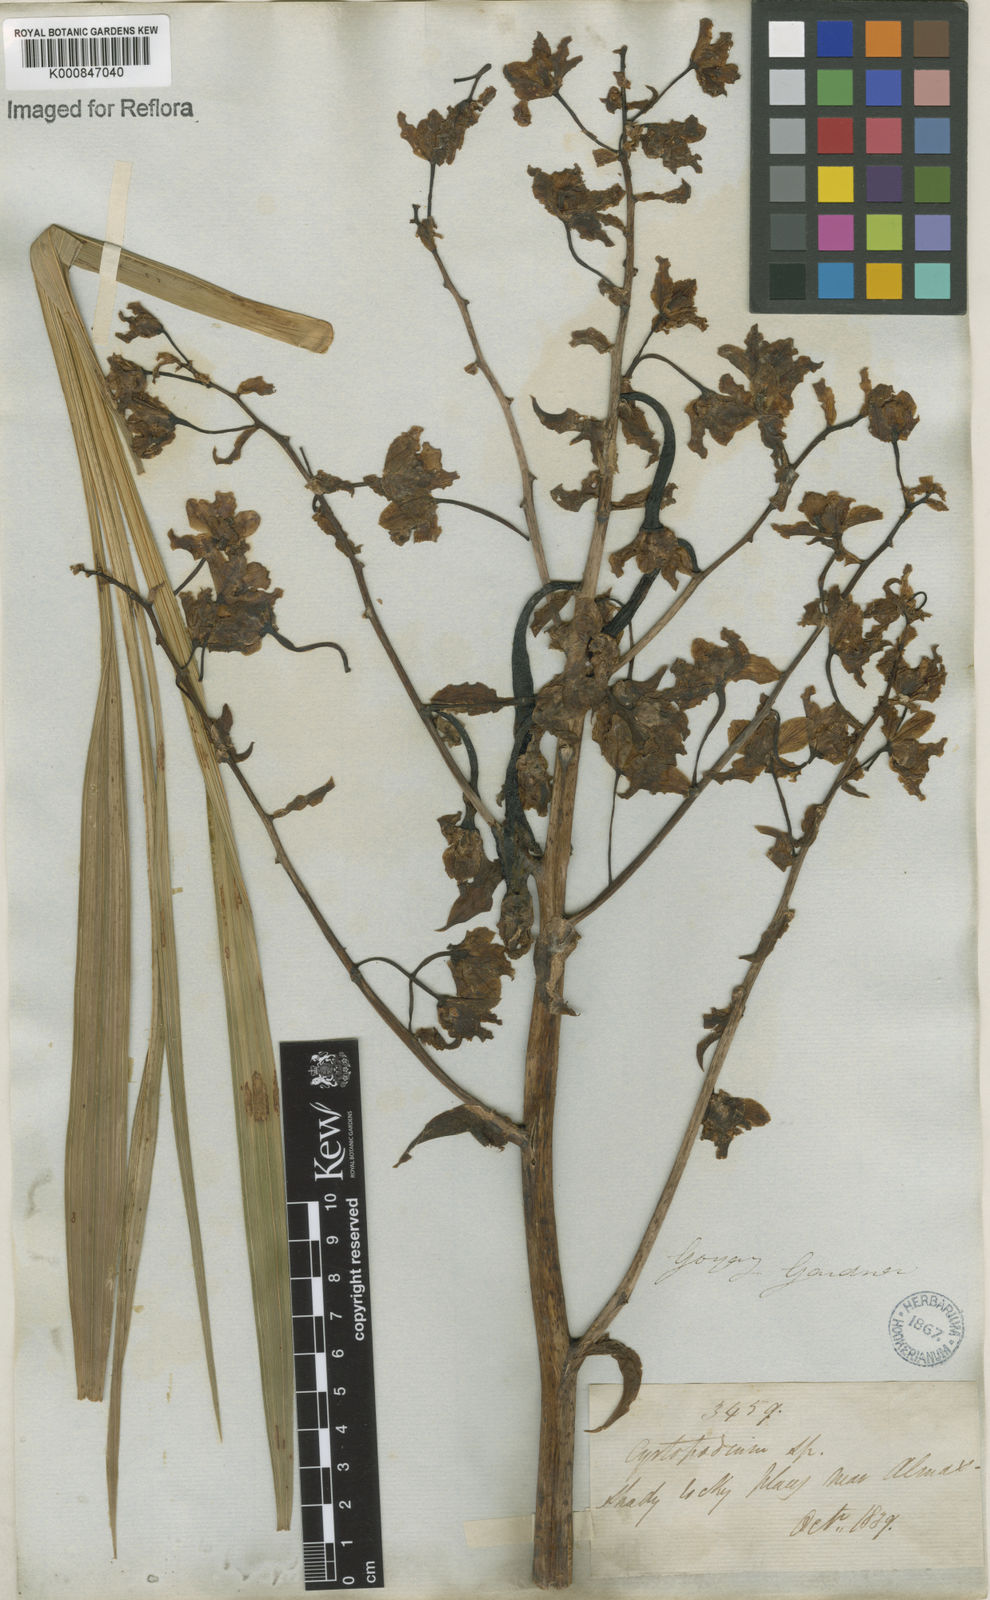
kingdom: Plantae
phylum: Tracheophyta
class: Liliopsida
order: Asparagales
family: Orchidaceae
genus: Cyrtopodium
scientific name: Cyrtopodium punctatum
